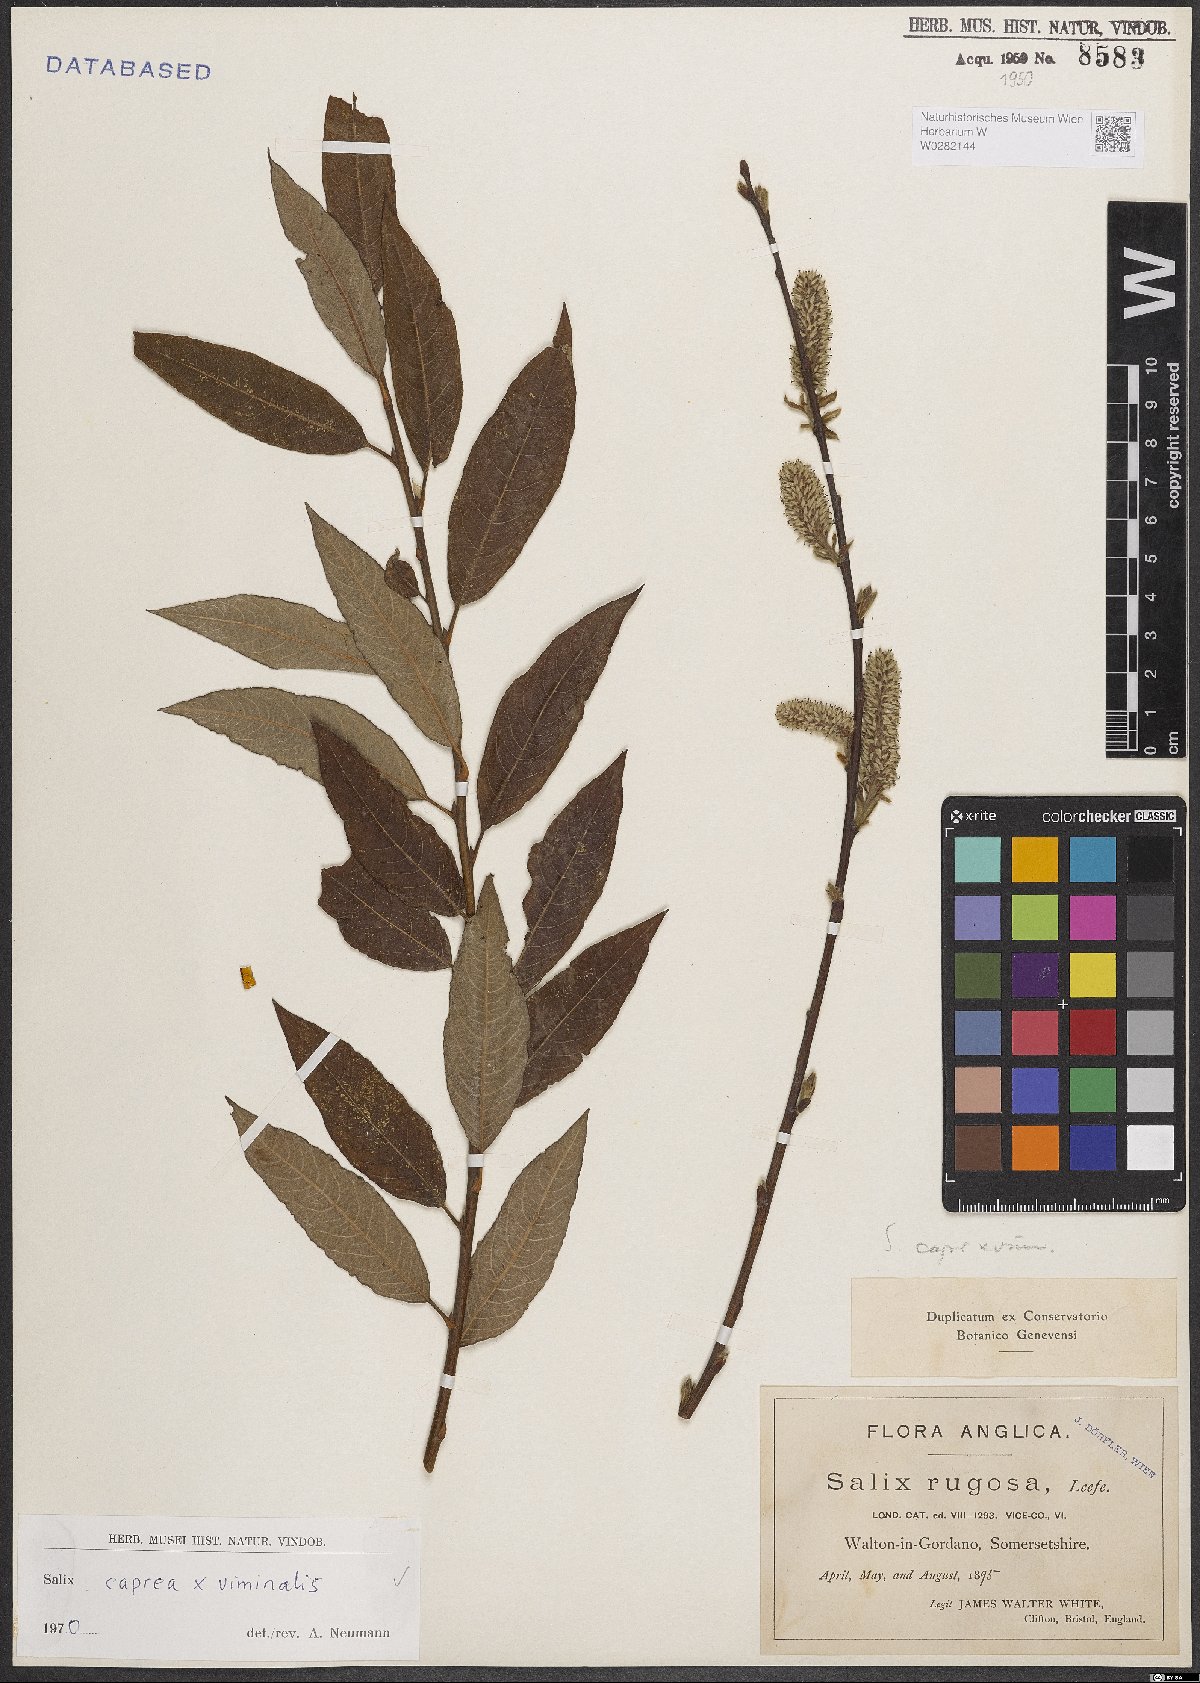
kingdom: Plantae
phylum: Tracheophyta
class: Magnoliopsida
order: Malpighiales
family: Salicaceae
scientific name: Salicaceae
